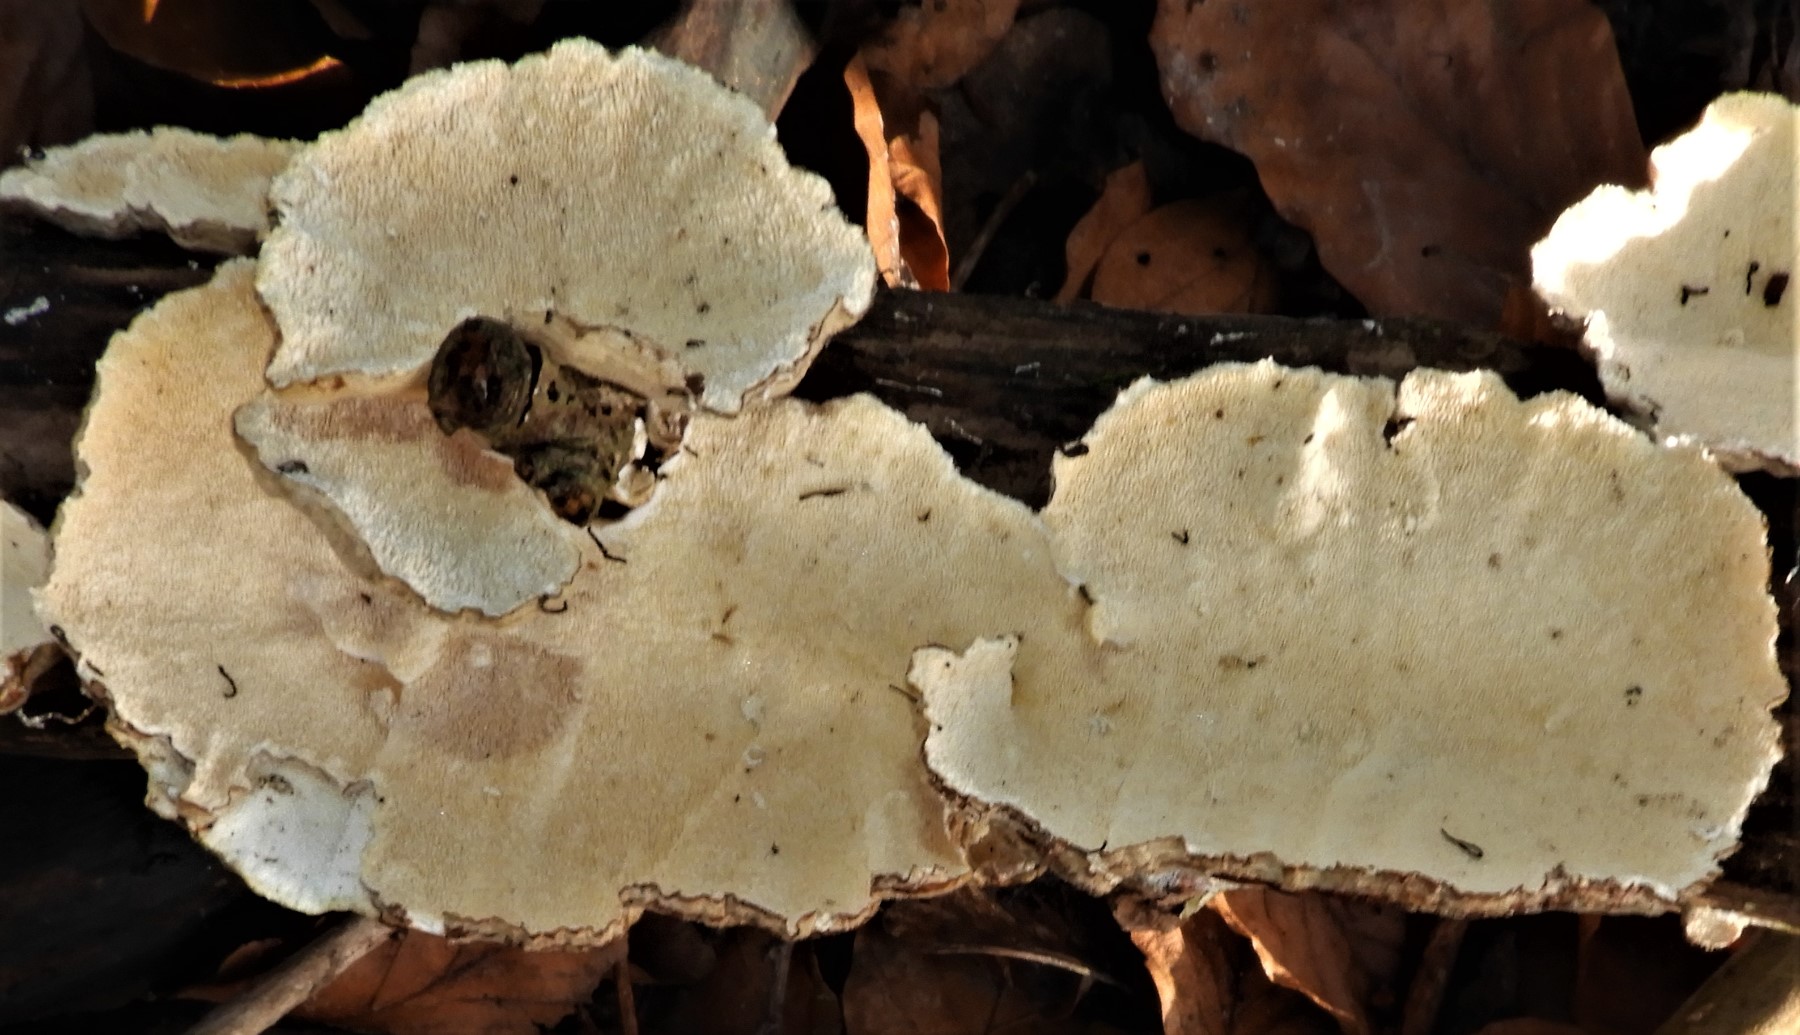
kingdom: Fungi
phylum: Basidiomycota
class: Agaricomycetes
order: Russulales
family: Stereaceae
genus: Stereum
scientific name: Stereum subtomentosum
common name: smuk lædersvamp
